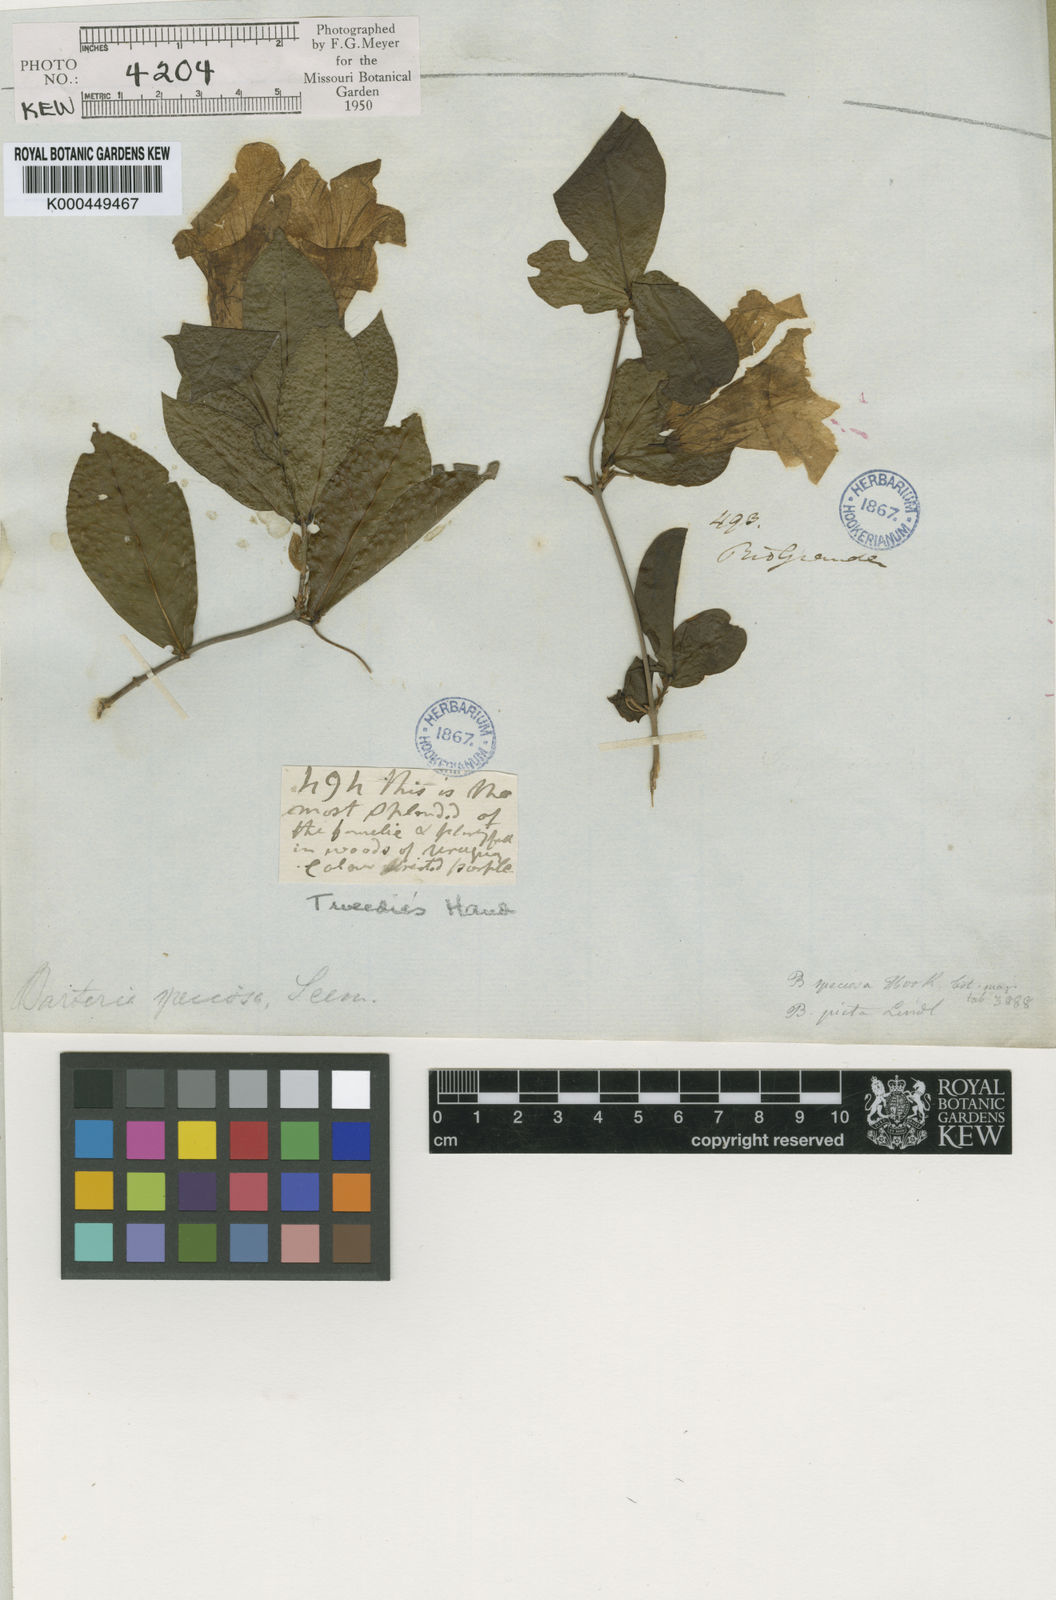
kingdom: Plantae
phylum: Tracheophyta
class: Magnoliopsida
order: Lamiales
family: Bignoniaceae
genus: Bignonia
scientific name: Bignonia callistegioides
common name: Argentine trumpetvine
